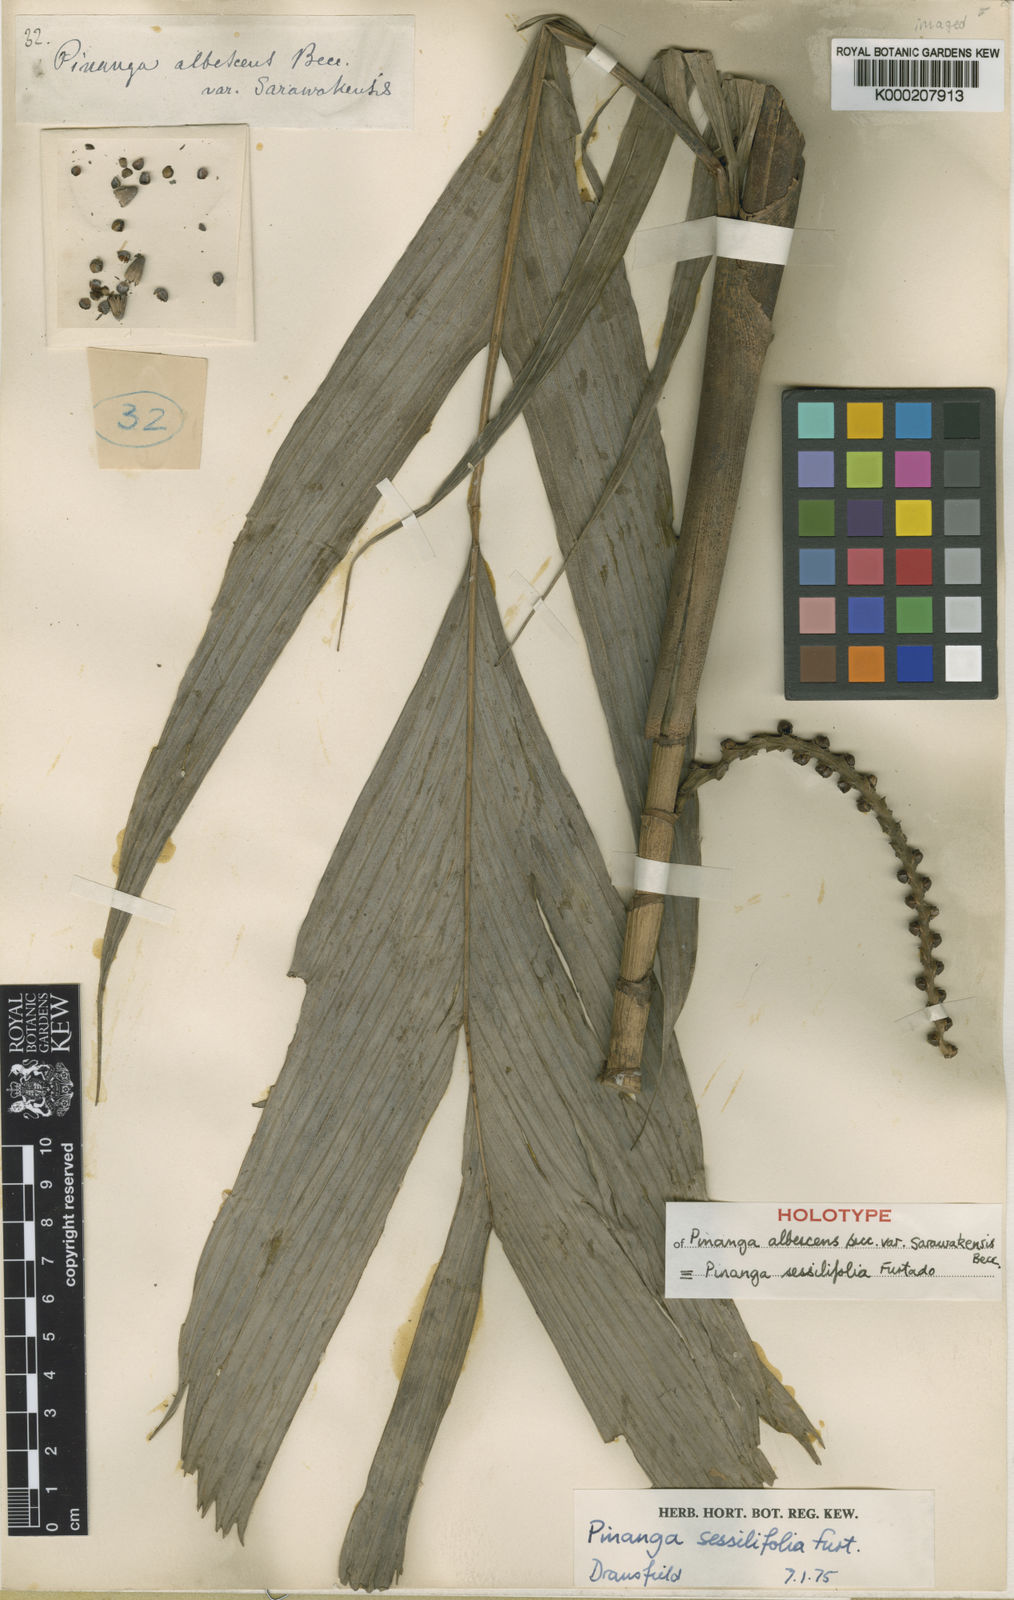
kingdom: Plantae
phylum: Tracheophyta
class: Liliopsida
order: Arecales
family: Arecaceae
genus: Pinanga
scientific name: Pinanga sessilifolia
